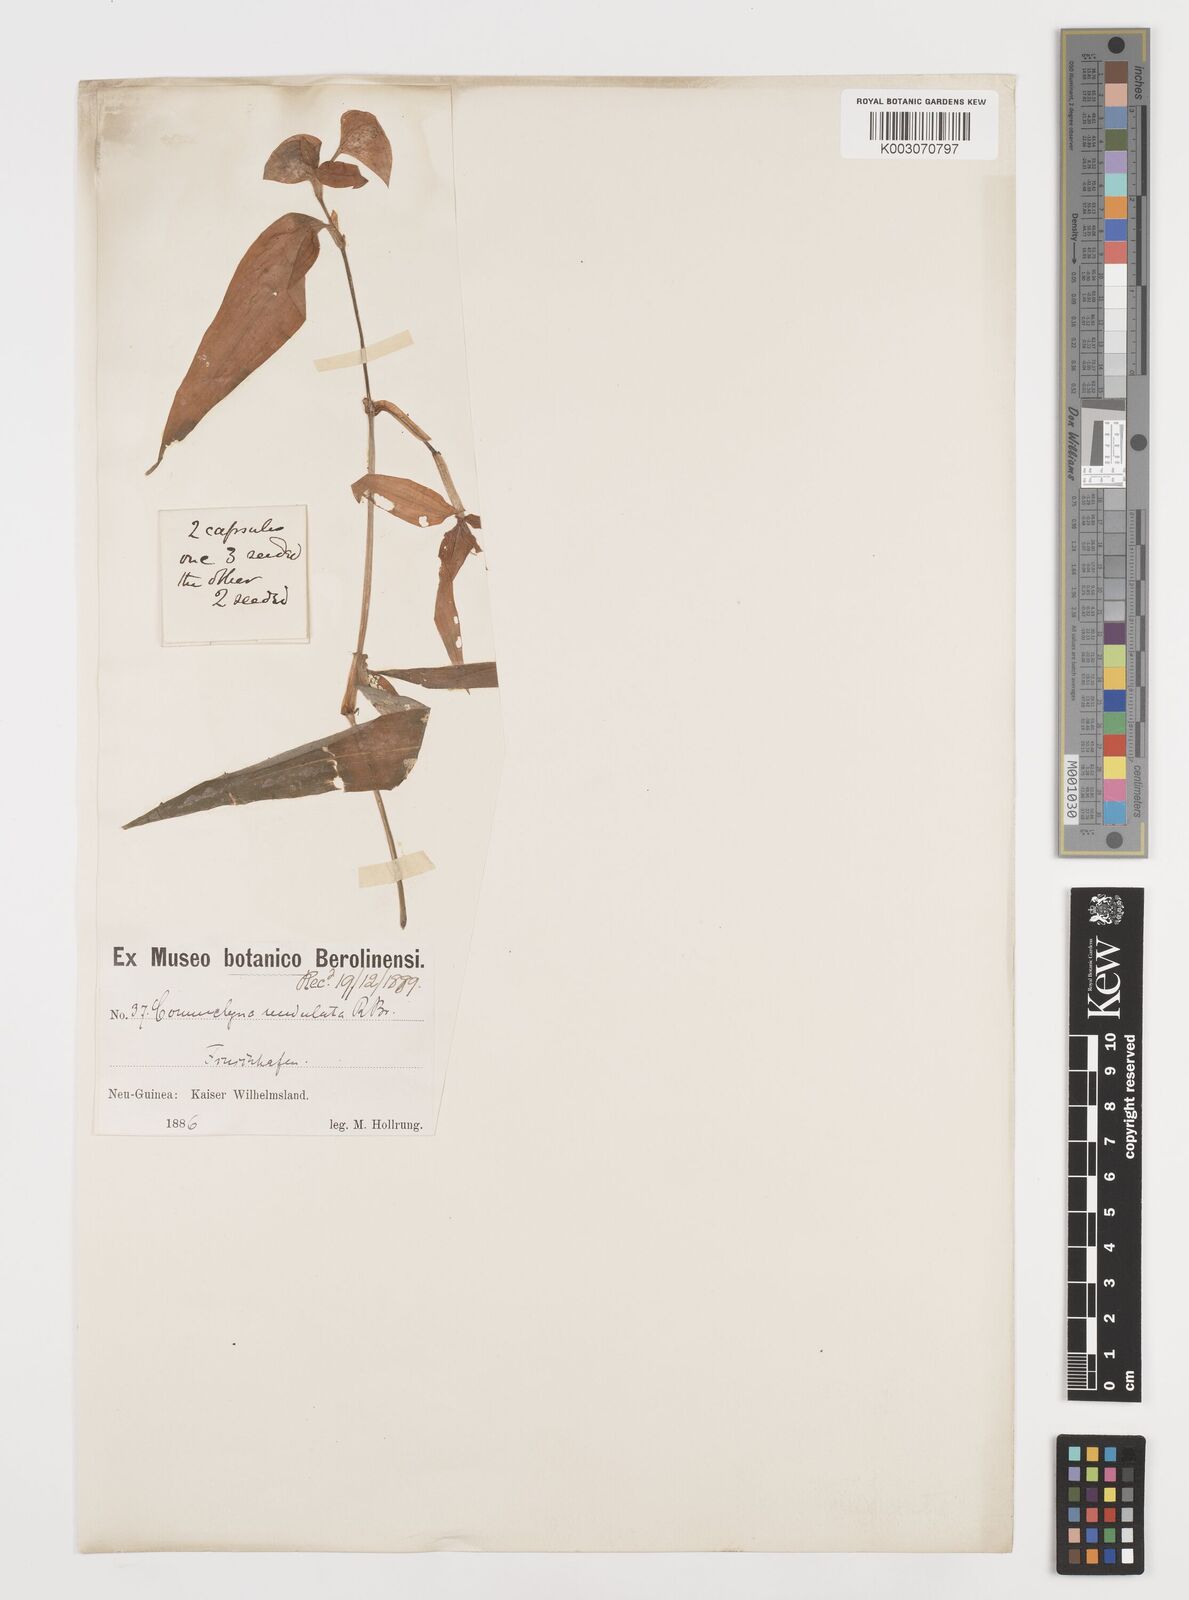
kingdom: Plantae
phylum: Tracheophyta
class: Liliopsida
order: Commelinales
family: Commelinaceae
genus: Commelina
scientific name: Commelina undulata
